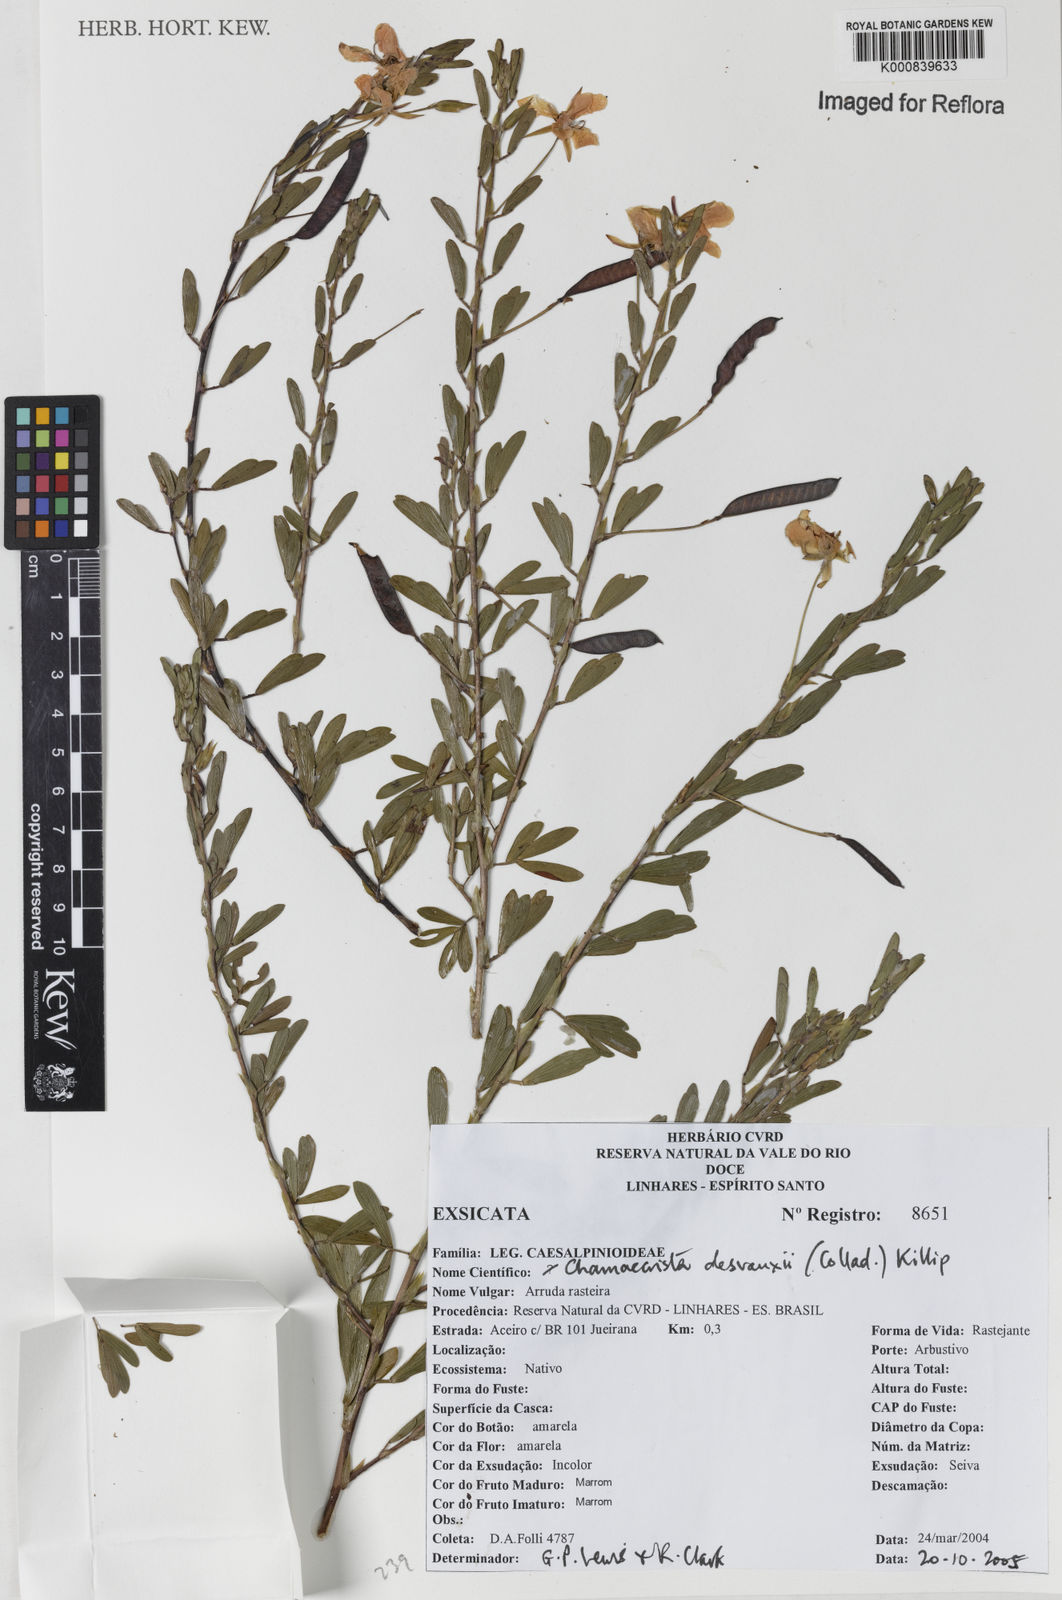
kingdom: Plantae
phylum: Tracheophyta
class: Magnoliopsida
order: Fabales
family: Fabaceae
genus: Chamaecrista
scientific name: Chamaecrista desvauxii
